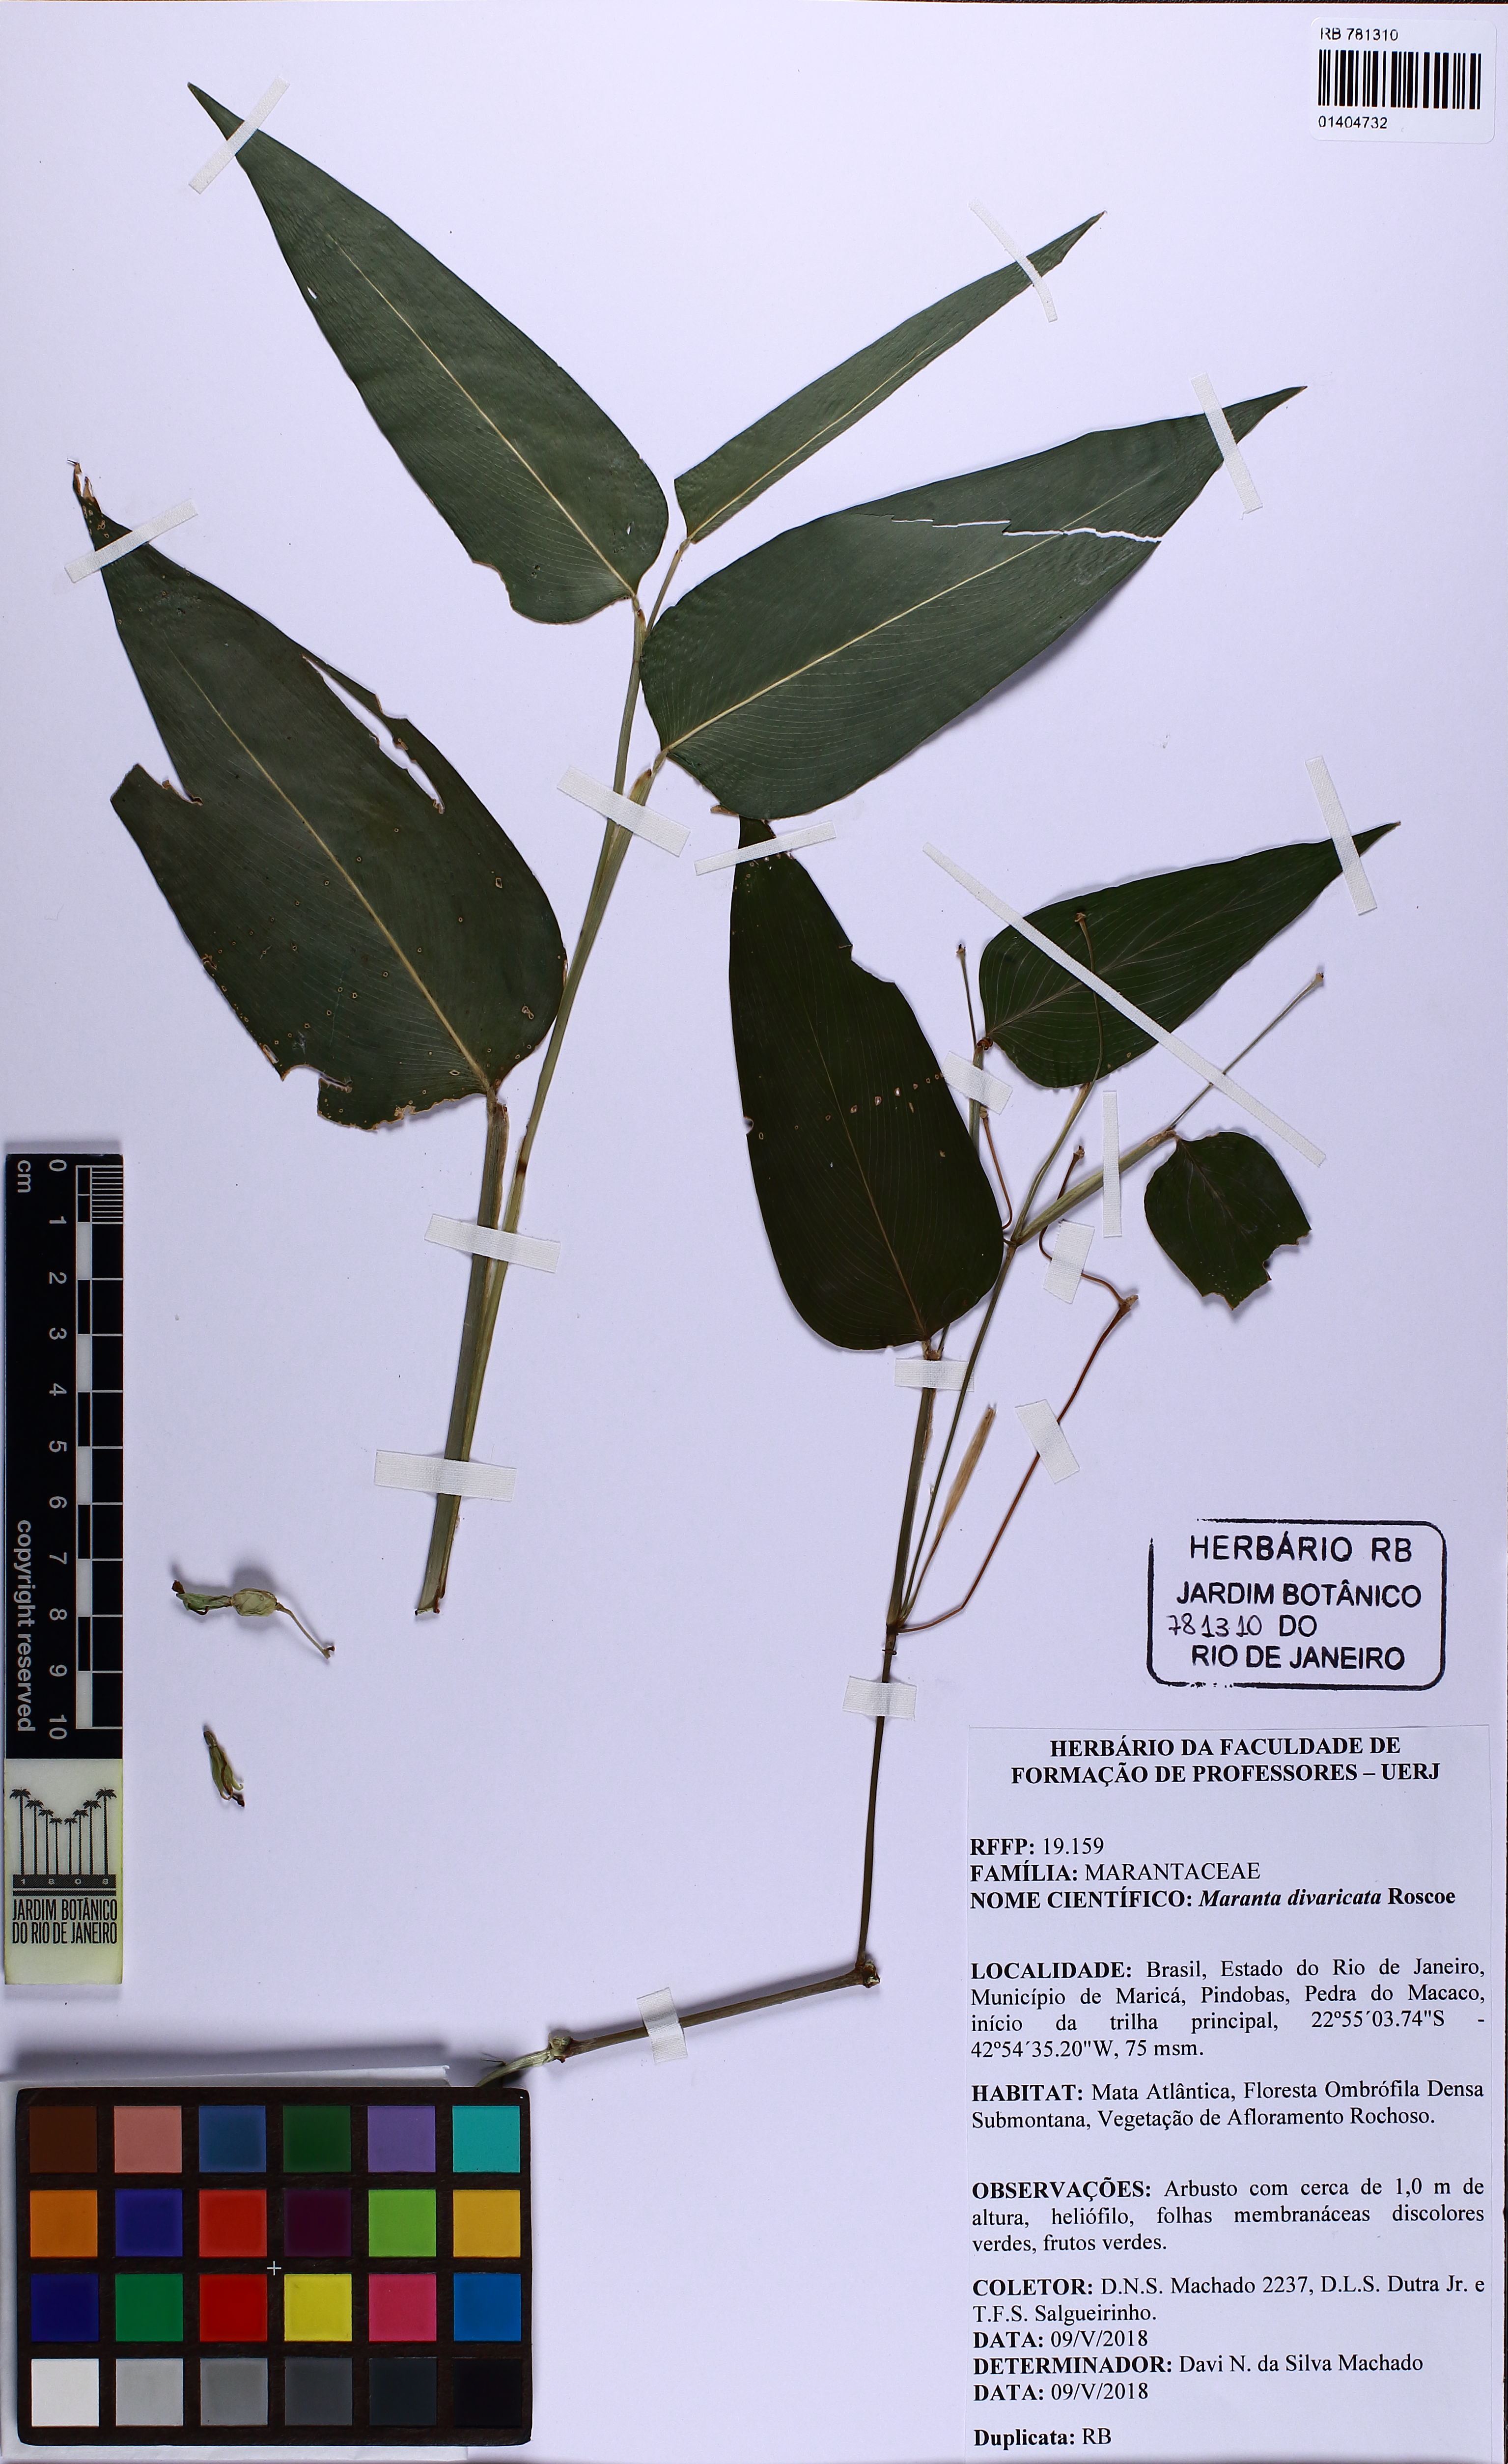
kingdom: Plantae
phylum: Tracheophyta
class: Liliopsida
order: Zingiberales
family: Marantaceae
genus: Maranta
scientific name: Maranta divaricata
